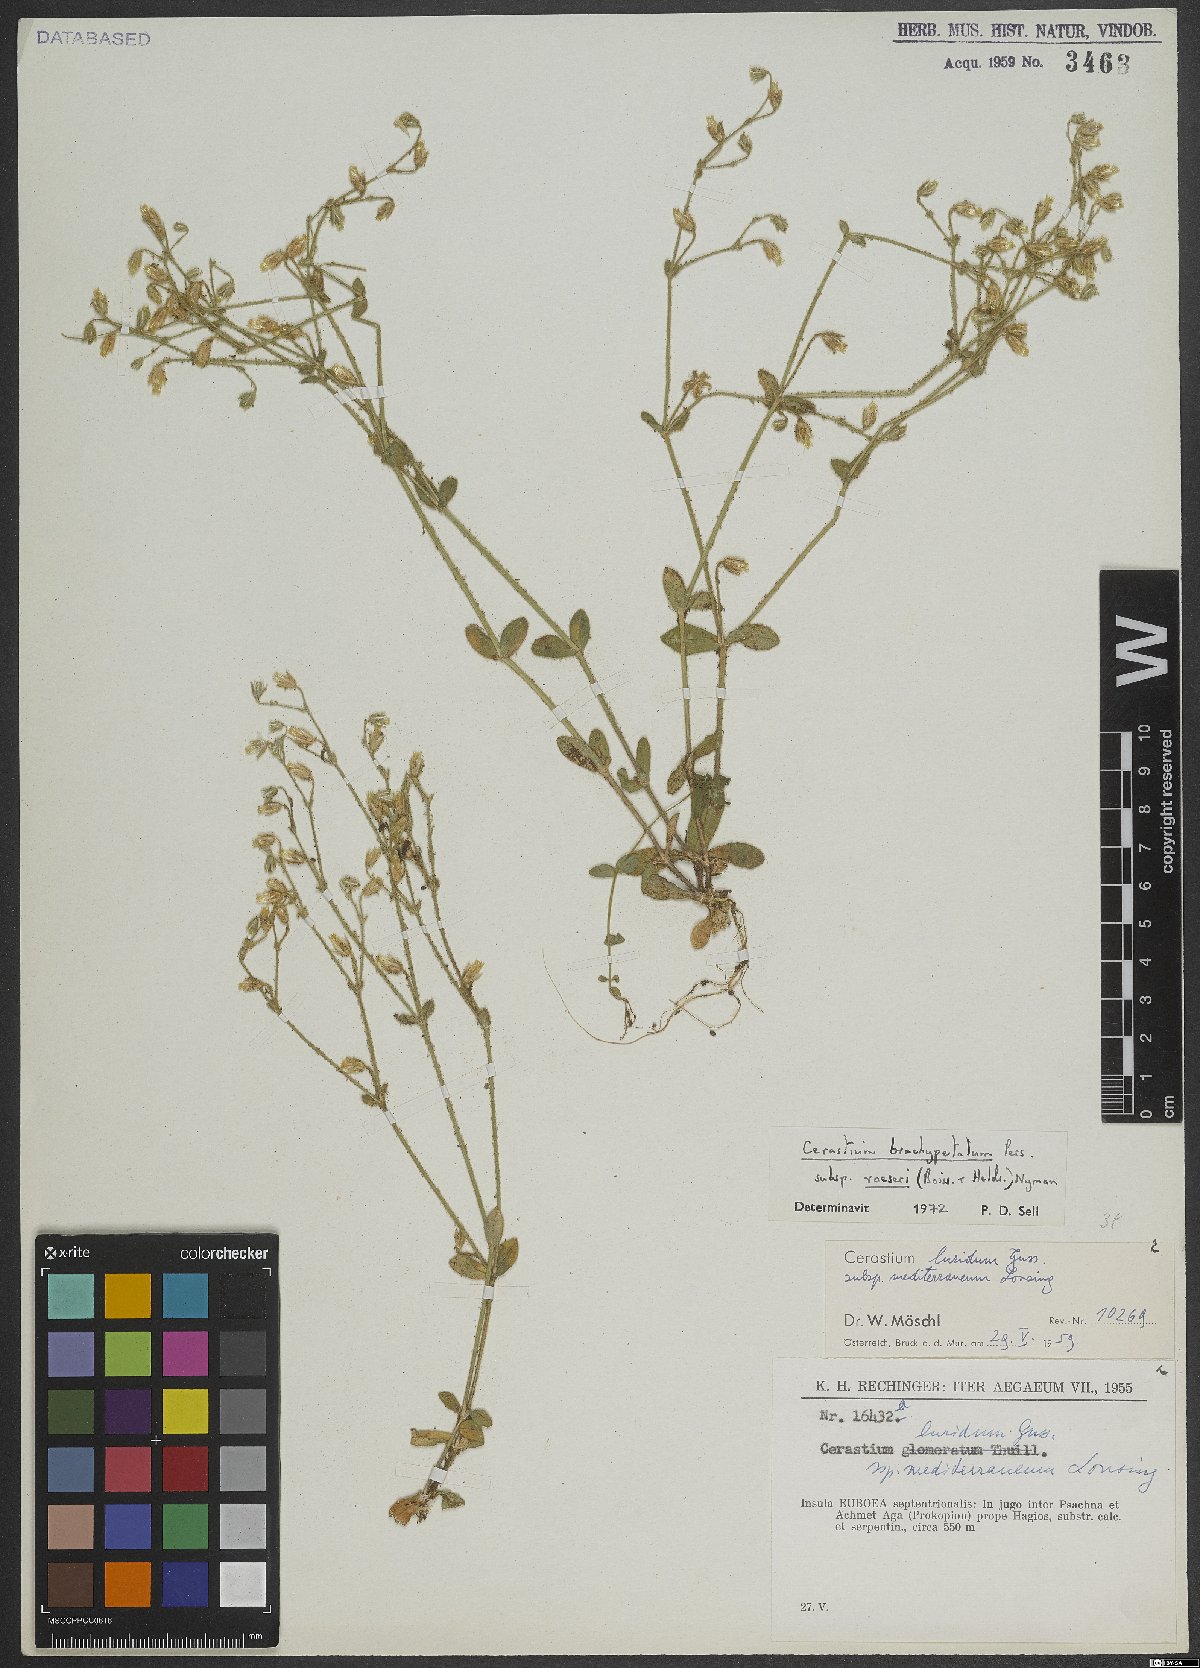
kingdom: Plantae
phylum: Tracheophyta
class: Magnoliopsida
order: Caryophyllales
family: Caryophyllaceae
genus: Cerastium
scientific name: Cerastium brachypetalum
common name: Grey mouse-ear
